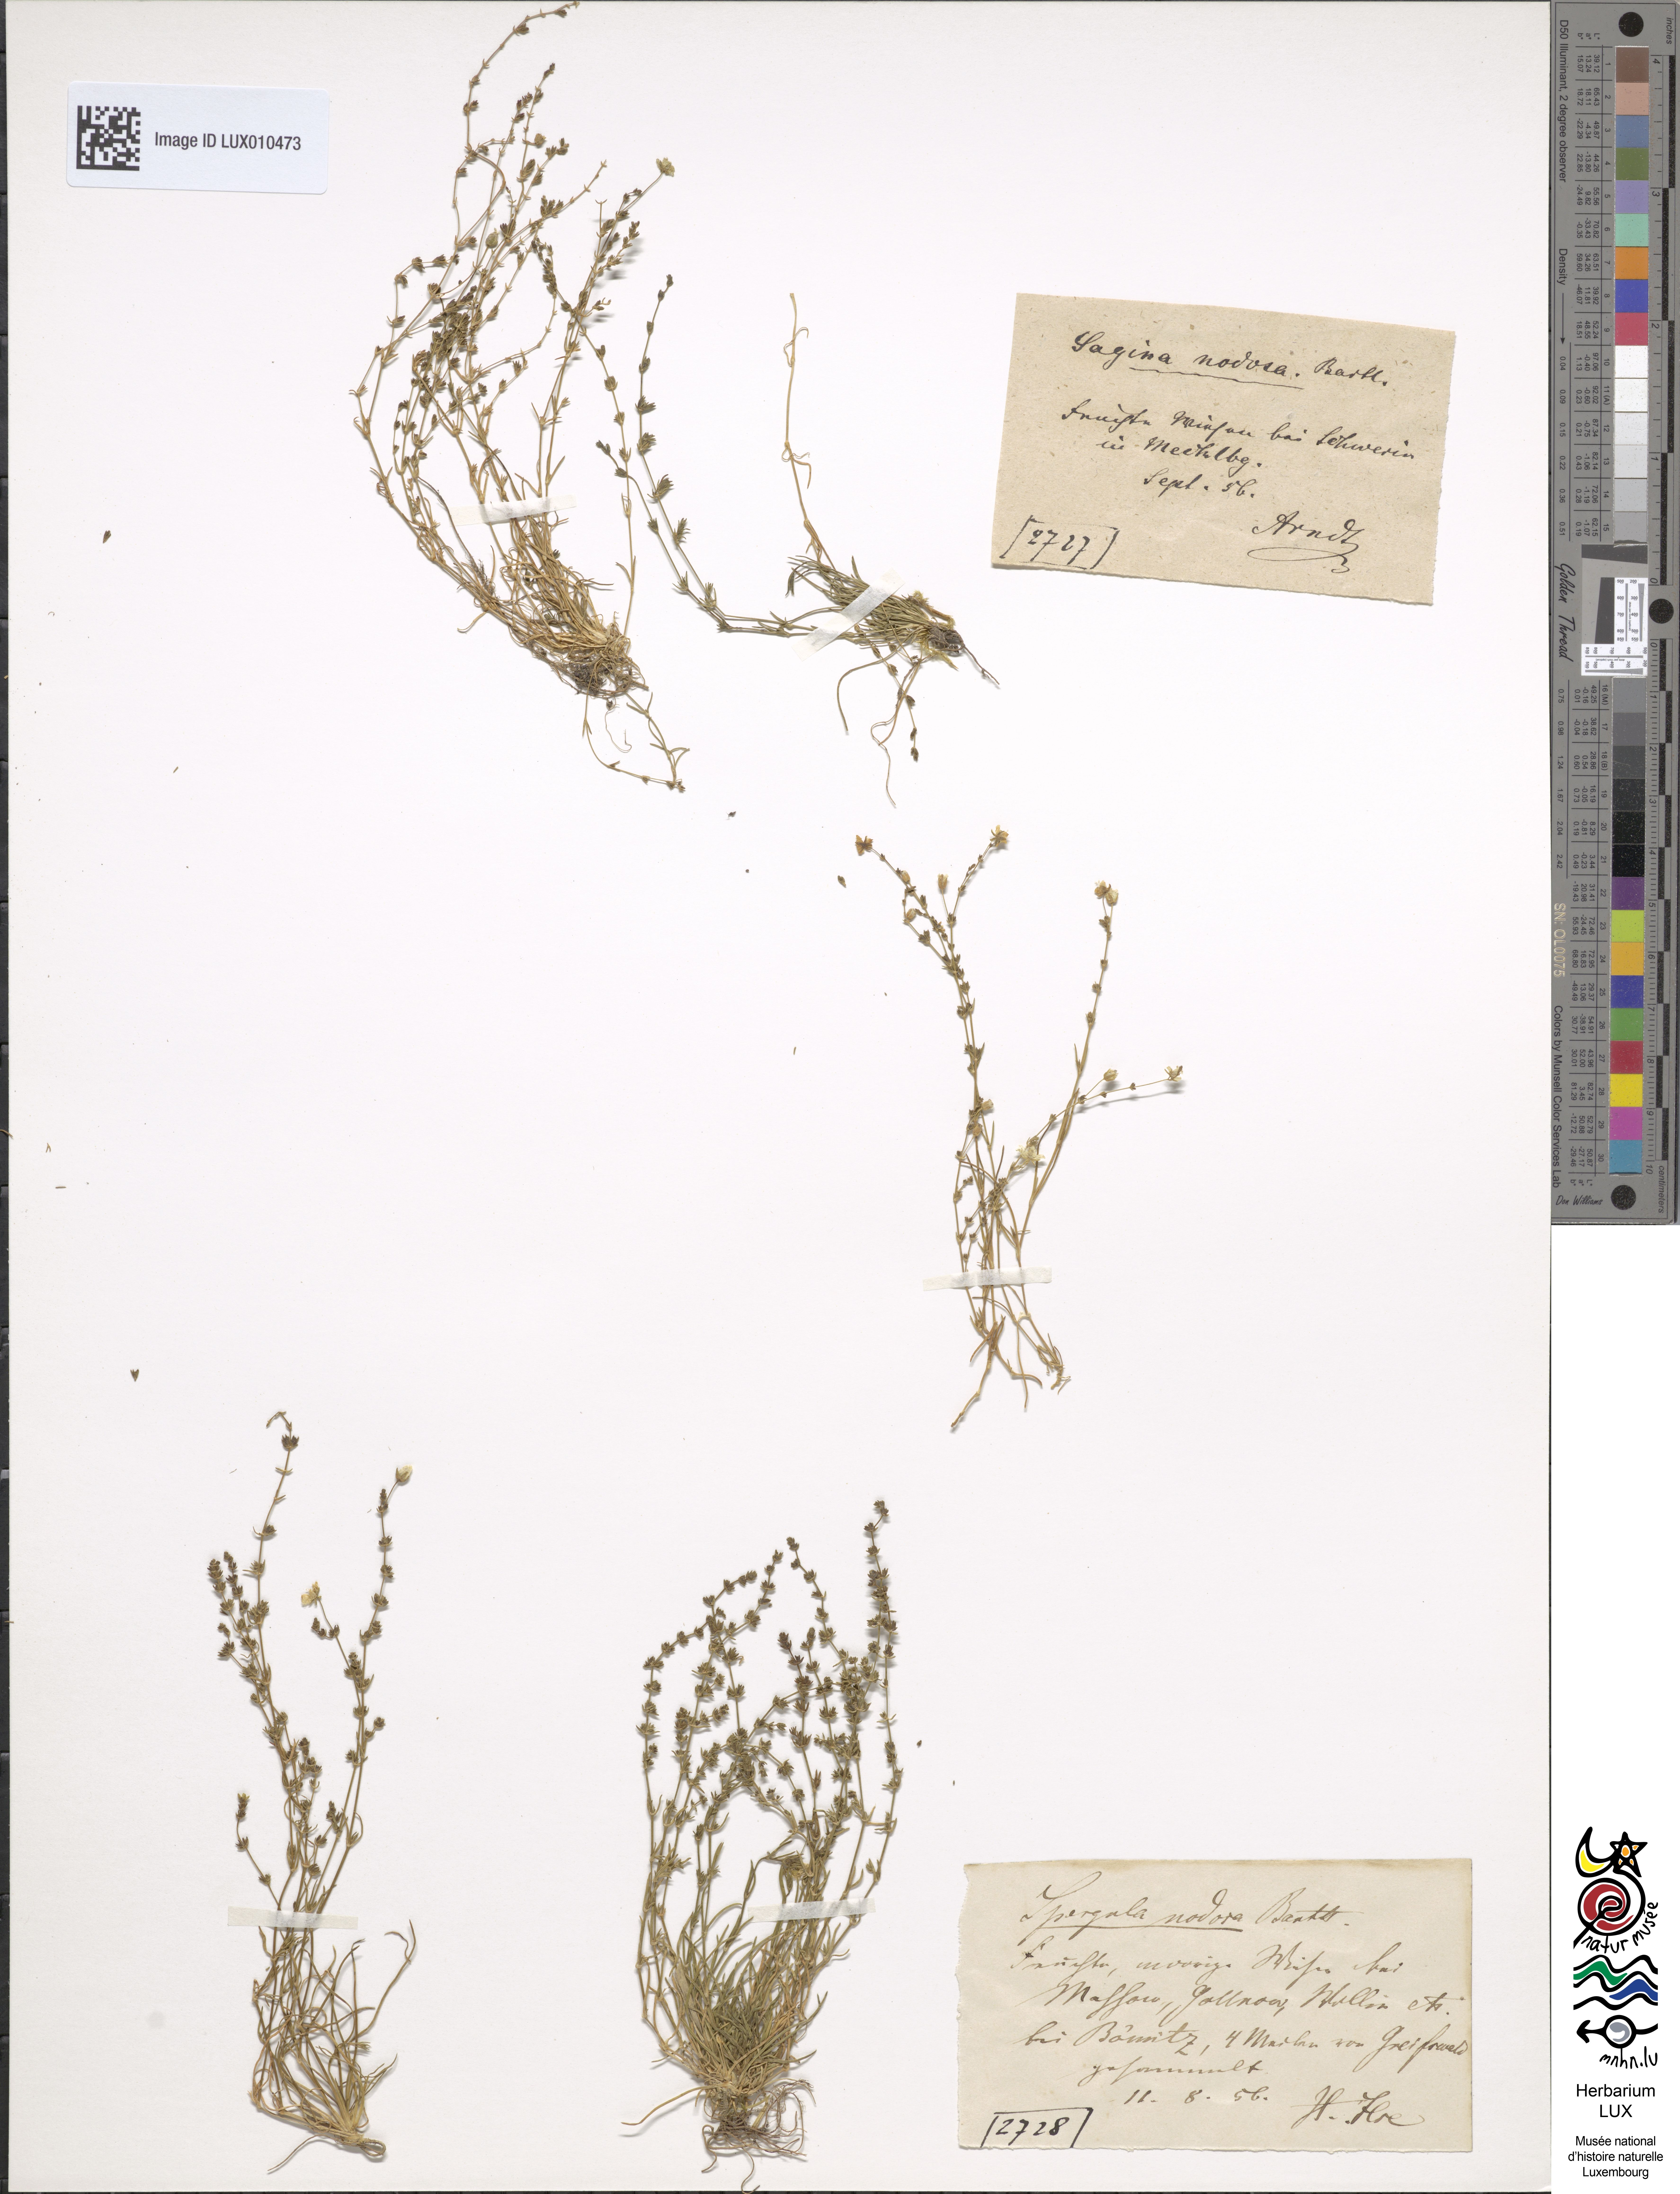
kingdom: Plantae
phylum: Tracheophyta
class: Magnoliopsida
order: Caryophyllales
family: Caryophyllaceae
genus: Sagina
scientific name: Sagina nodosa
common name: Knotted pearlwort
